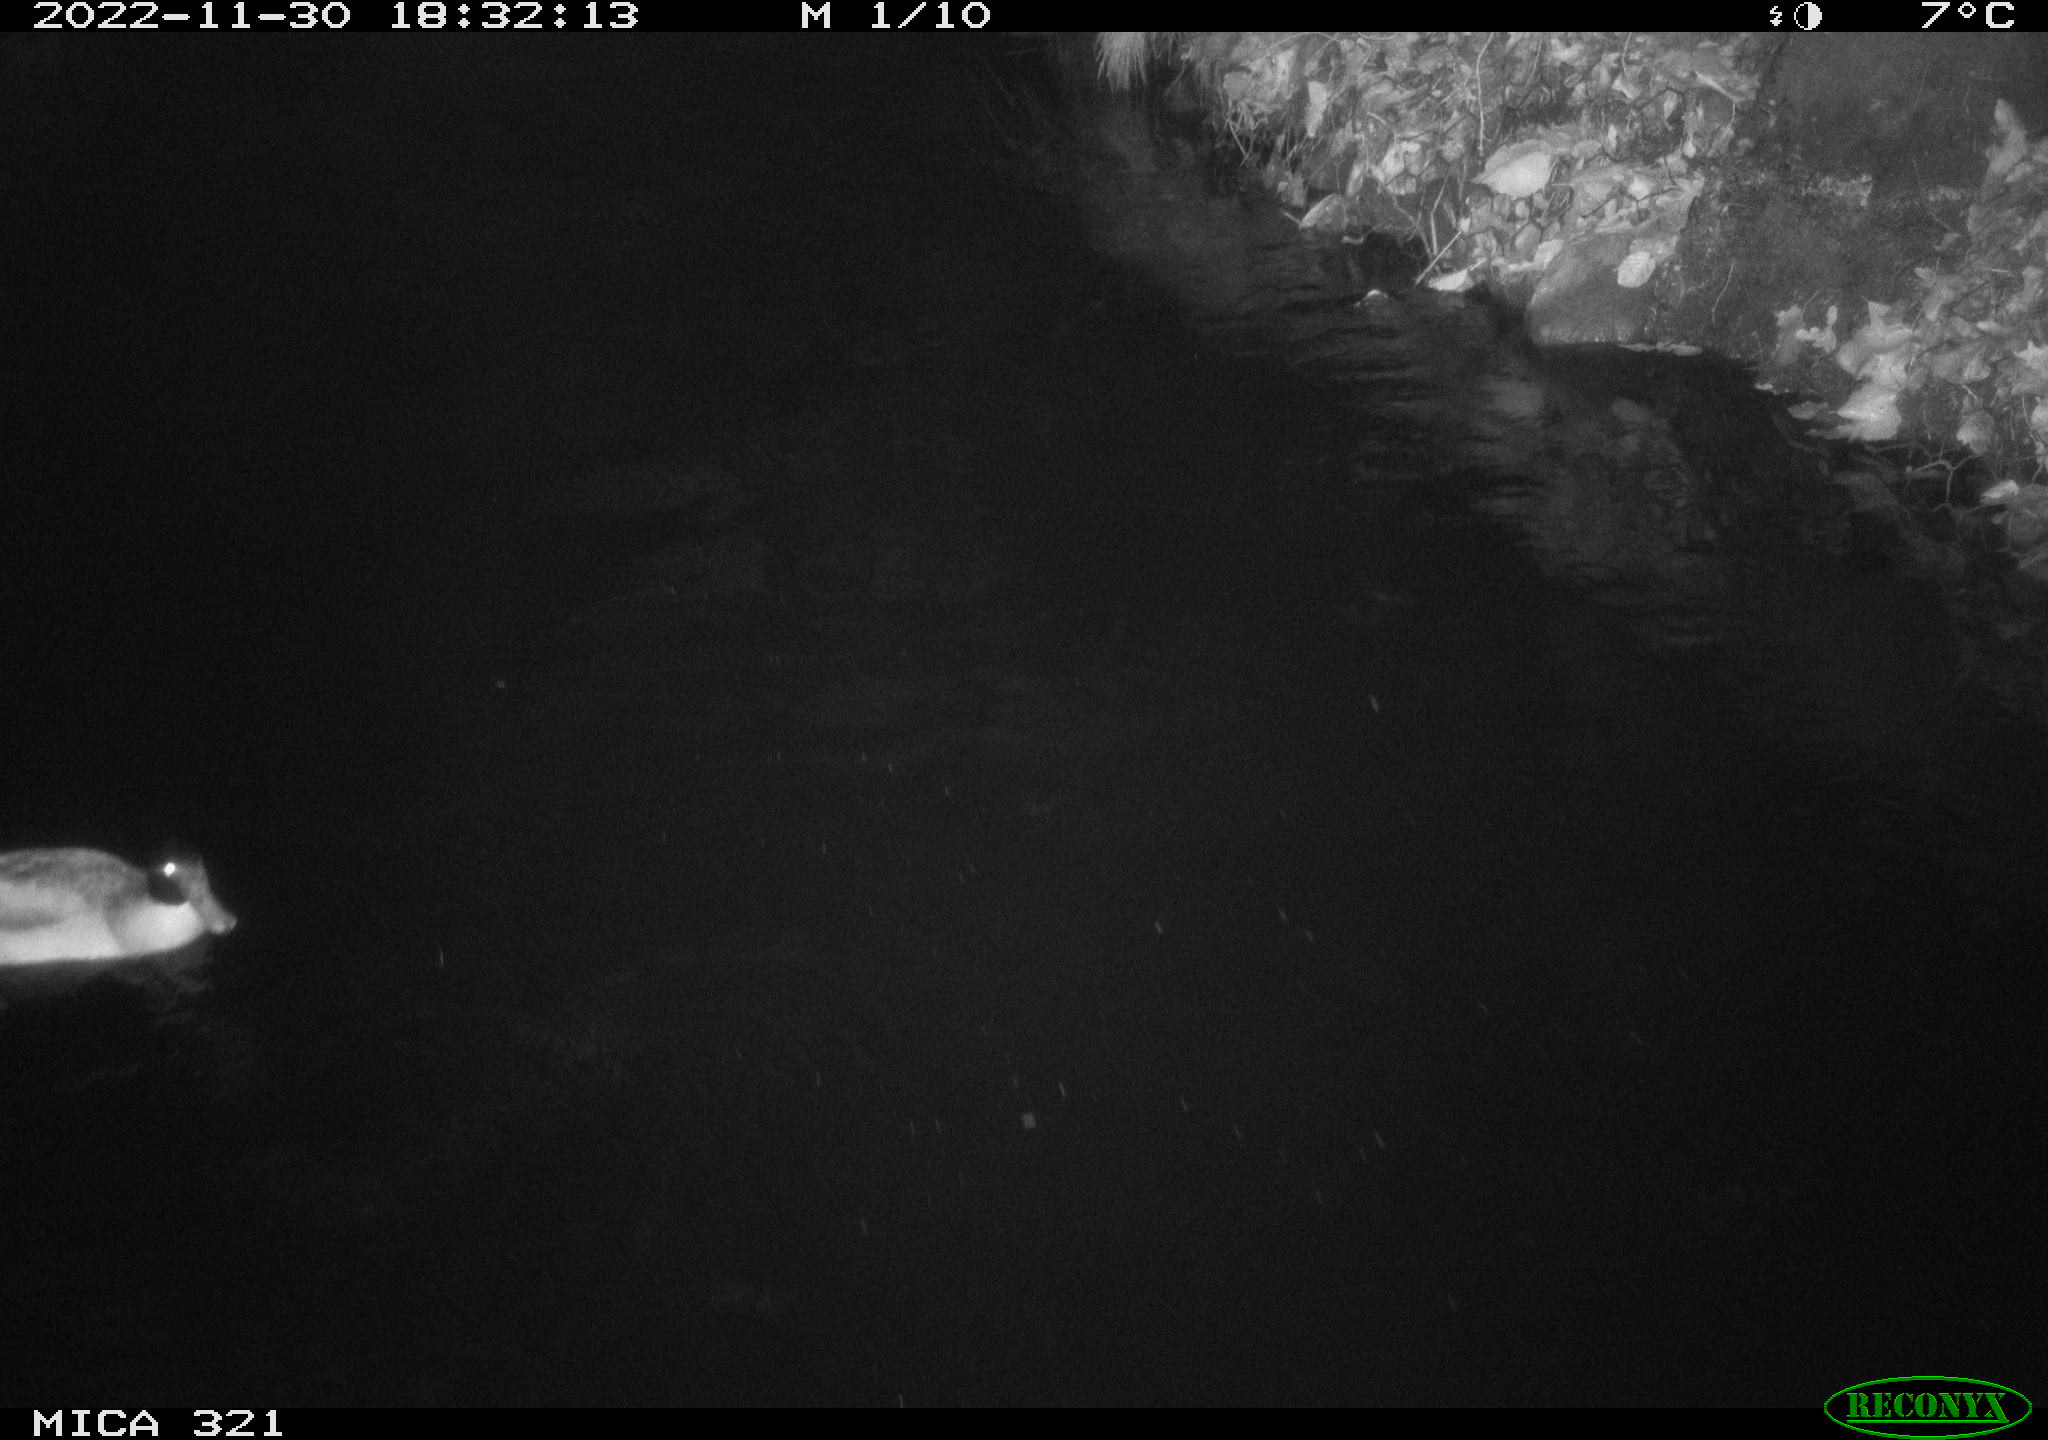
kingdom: Animalia
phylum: Chordata
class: Aves
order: Anseriformes
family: Anatidae
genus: Anas
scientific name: Anas
